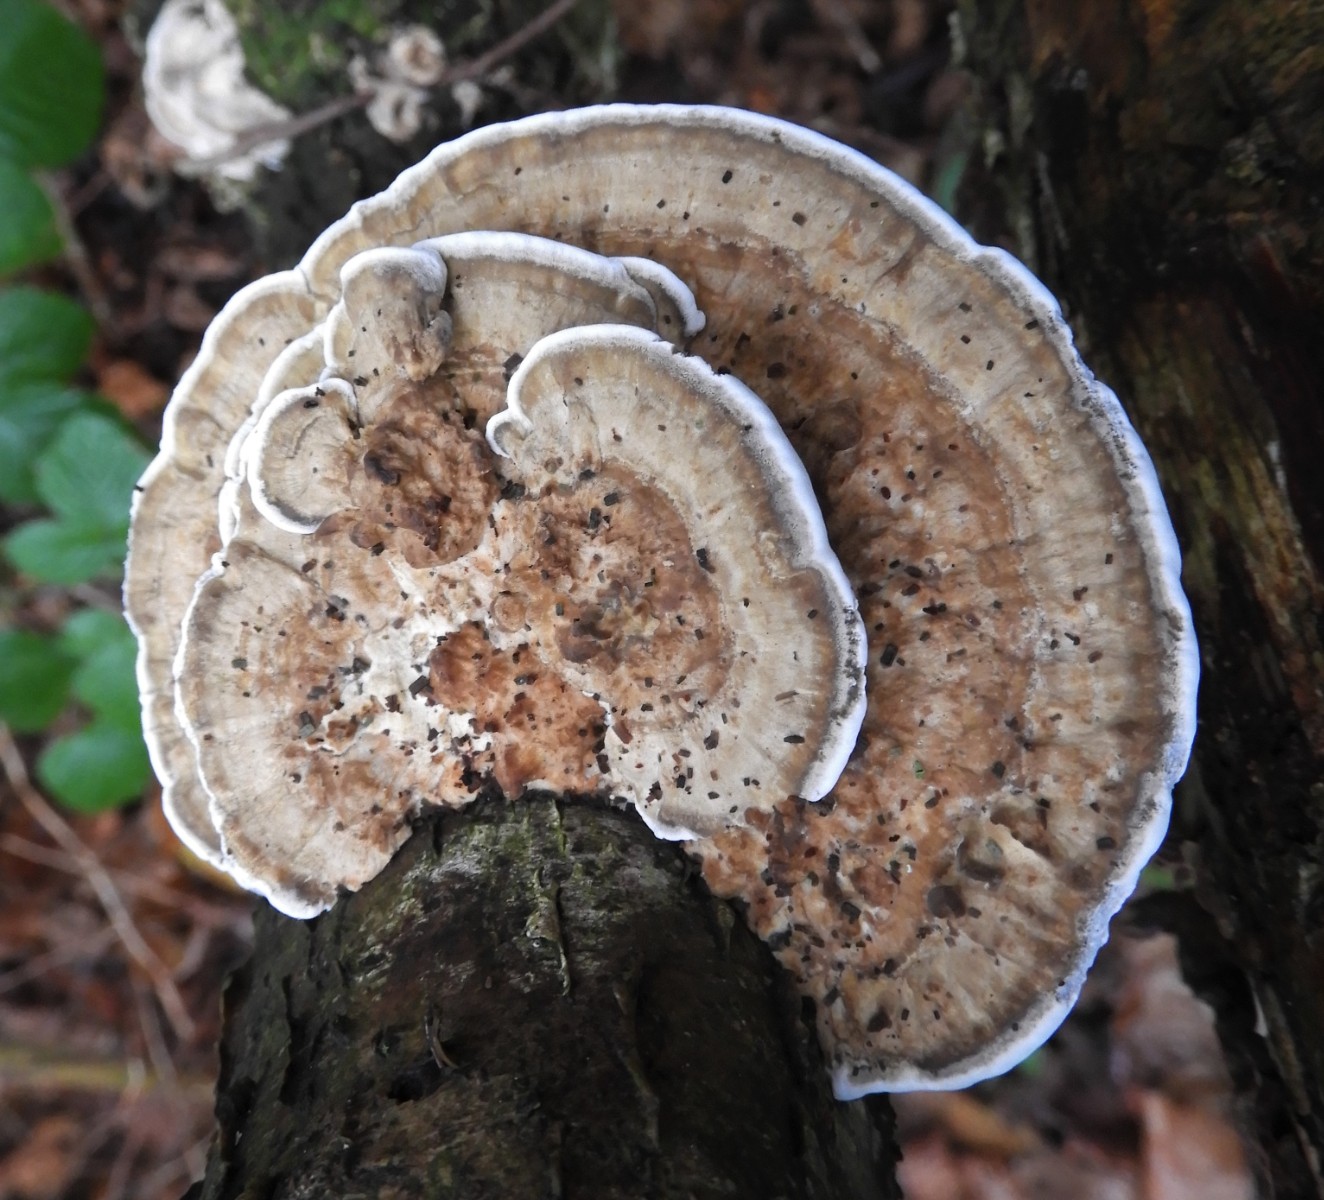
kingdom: Fungi
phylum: Basidiomycota
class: Agaricomycetes
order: Polyporales
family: Polyporaceae
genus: Daedaleopsis
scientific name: Daedaleopsis confragosa
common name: rødmende læderporesvamp
